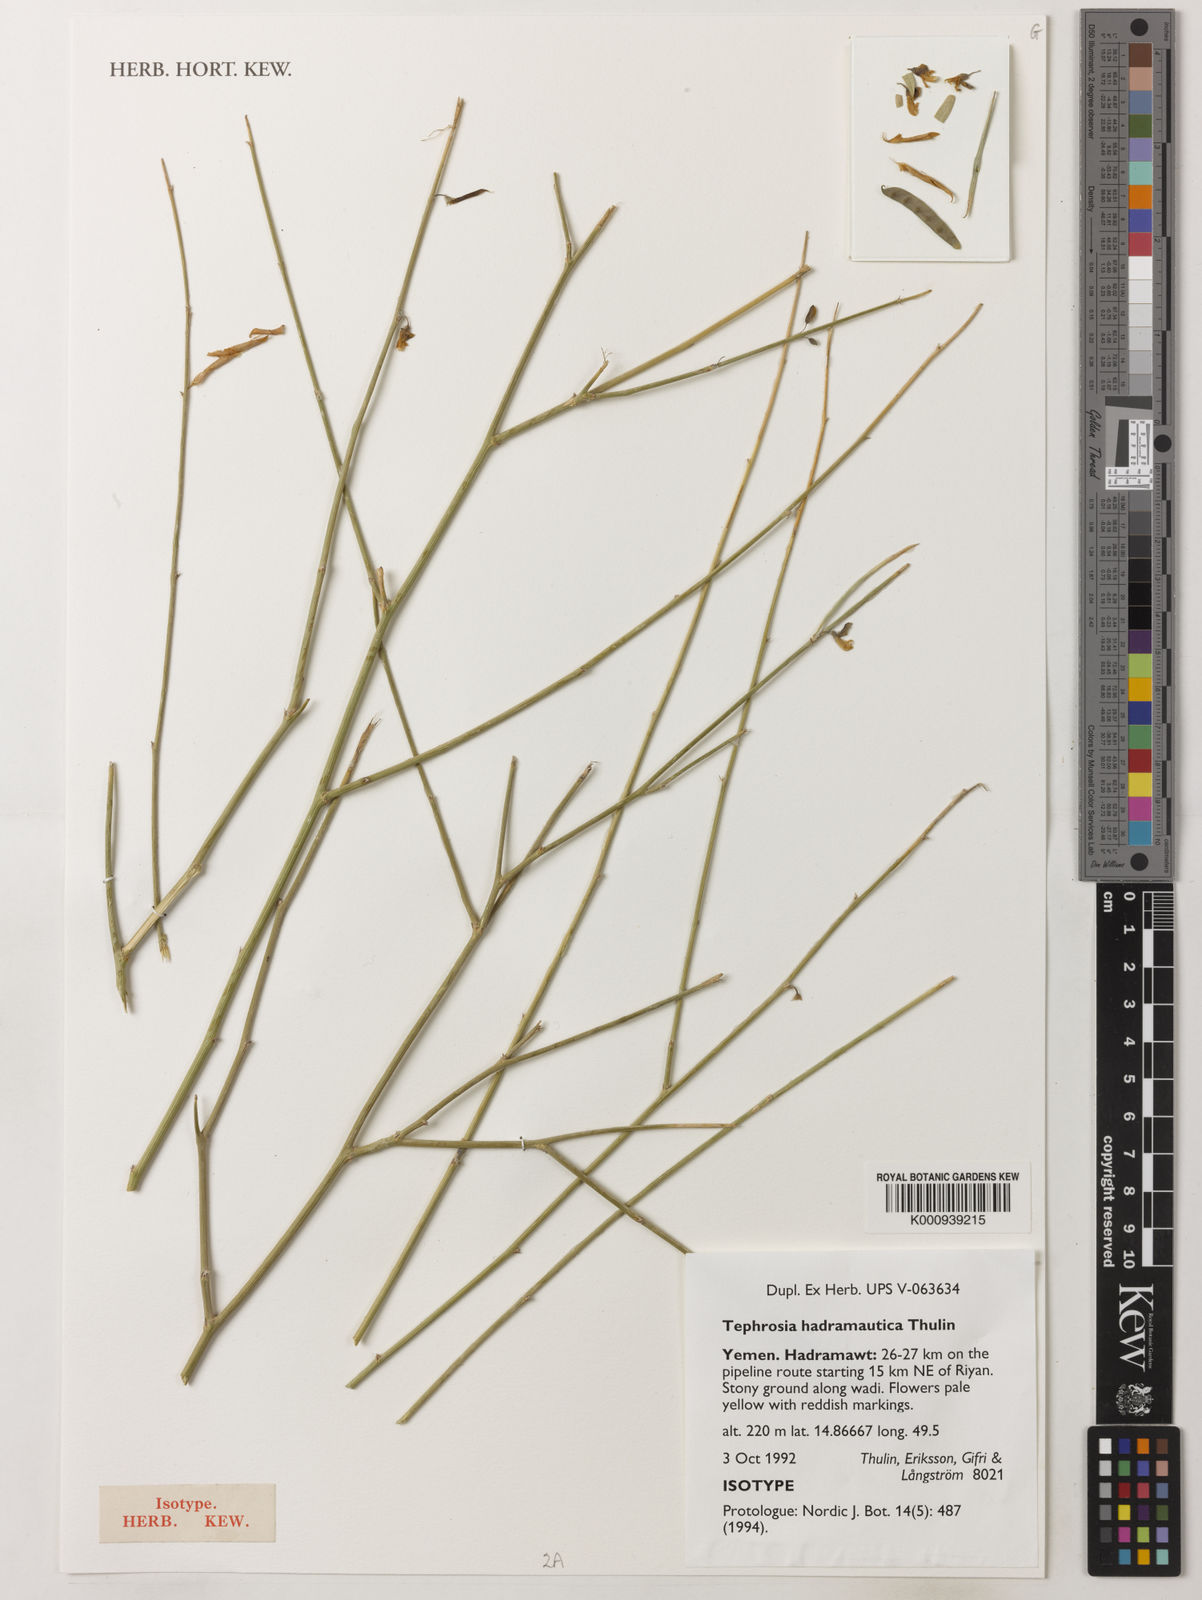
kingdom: Plantae
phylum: Tracheophyta
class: Magnoliopsida
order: Fabales
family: Fabaceae
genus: Tephrosia
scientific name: Tephrosia hadramautica
